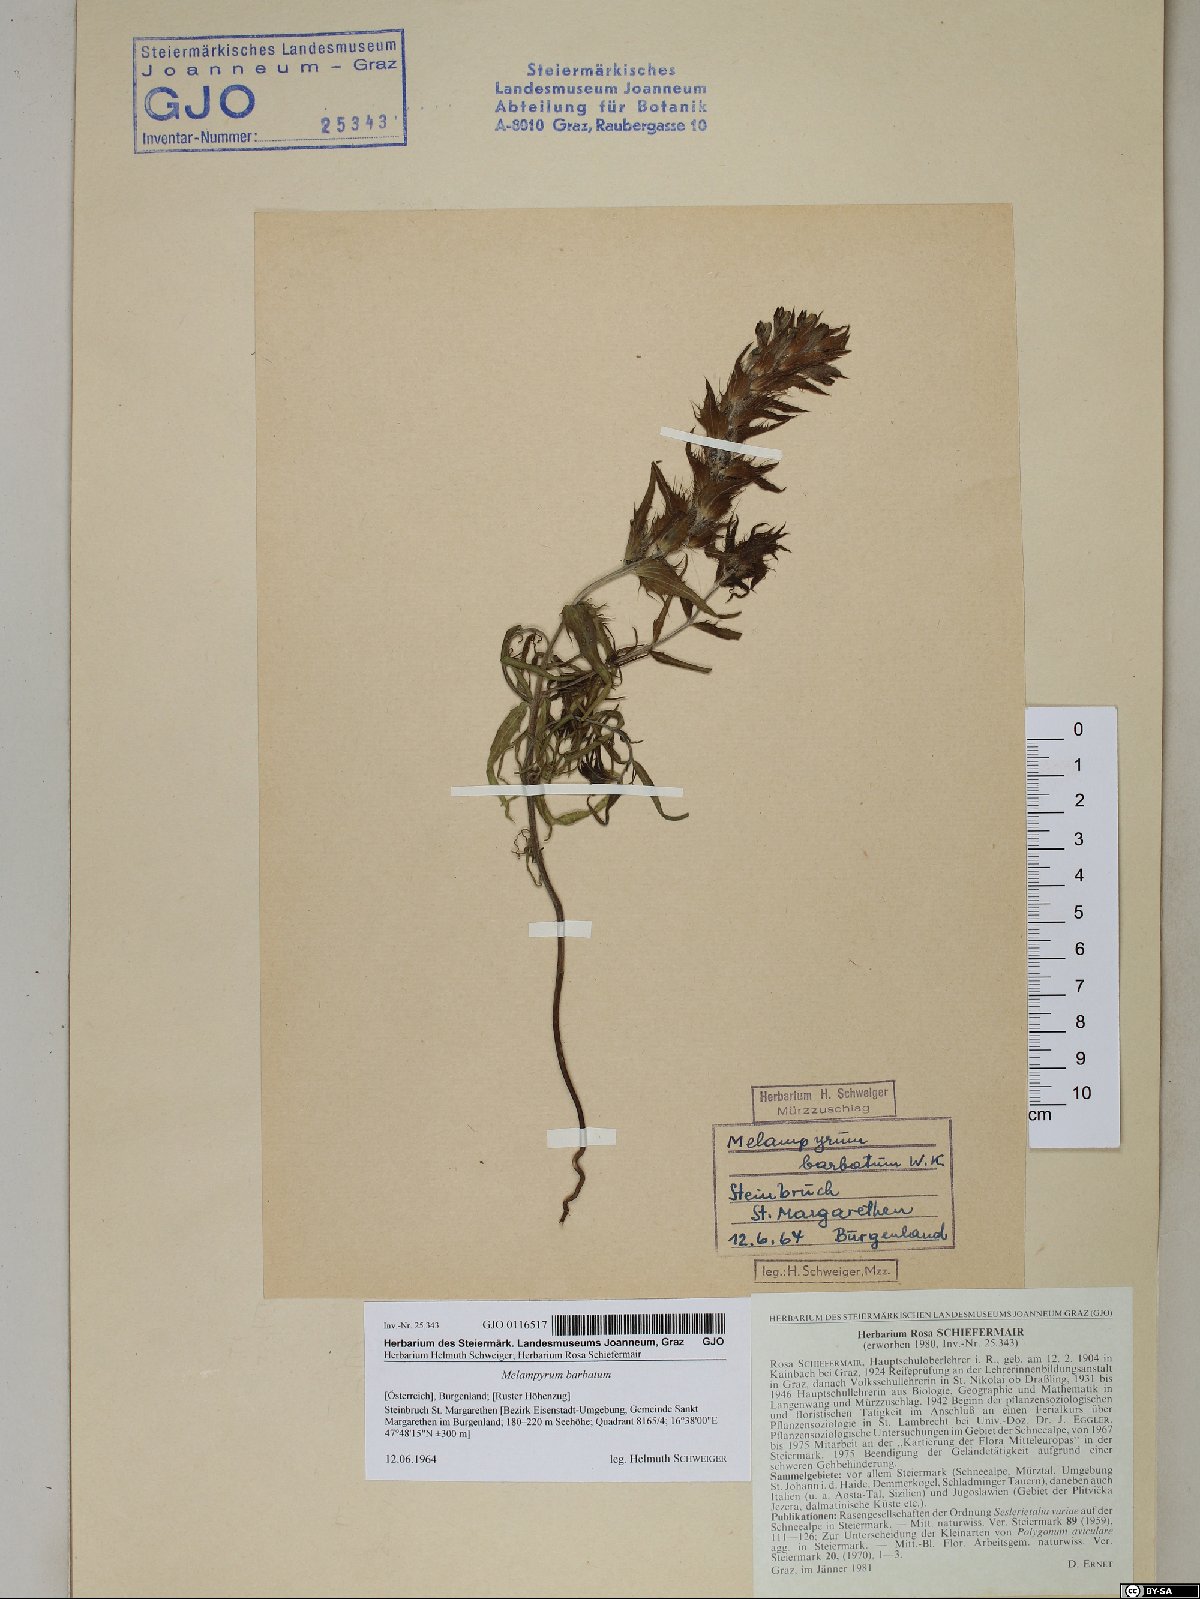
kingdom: Plantae
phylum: Tracheophyta
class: Magnoliopsida
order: Lamiales
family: Orobanchaceae
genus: Melampyrum
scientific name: Melampyrum barbatum
